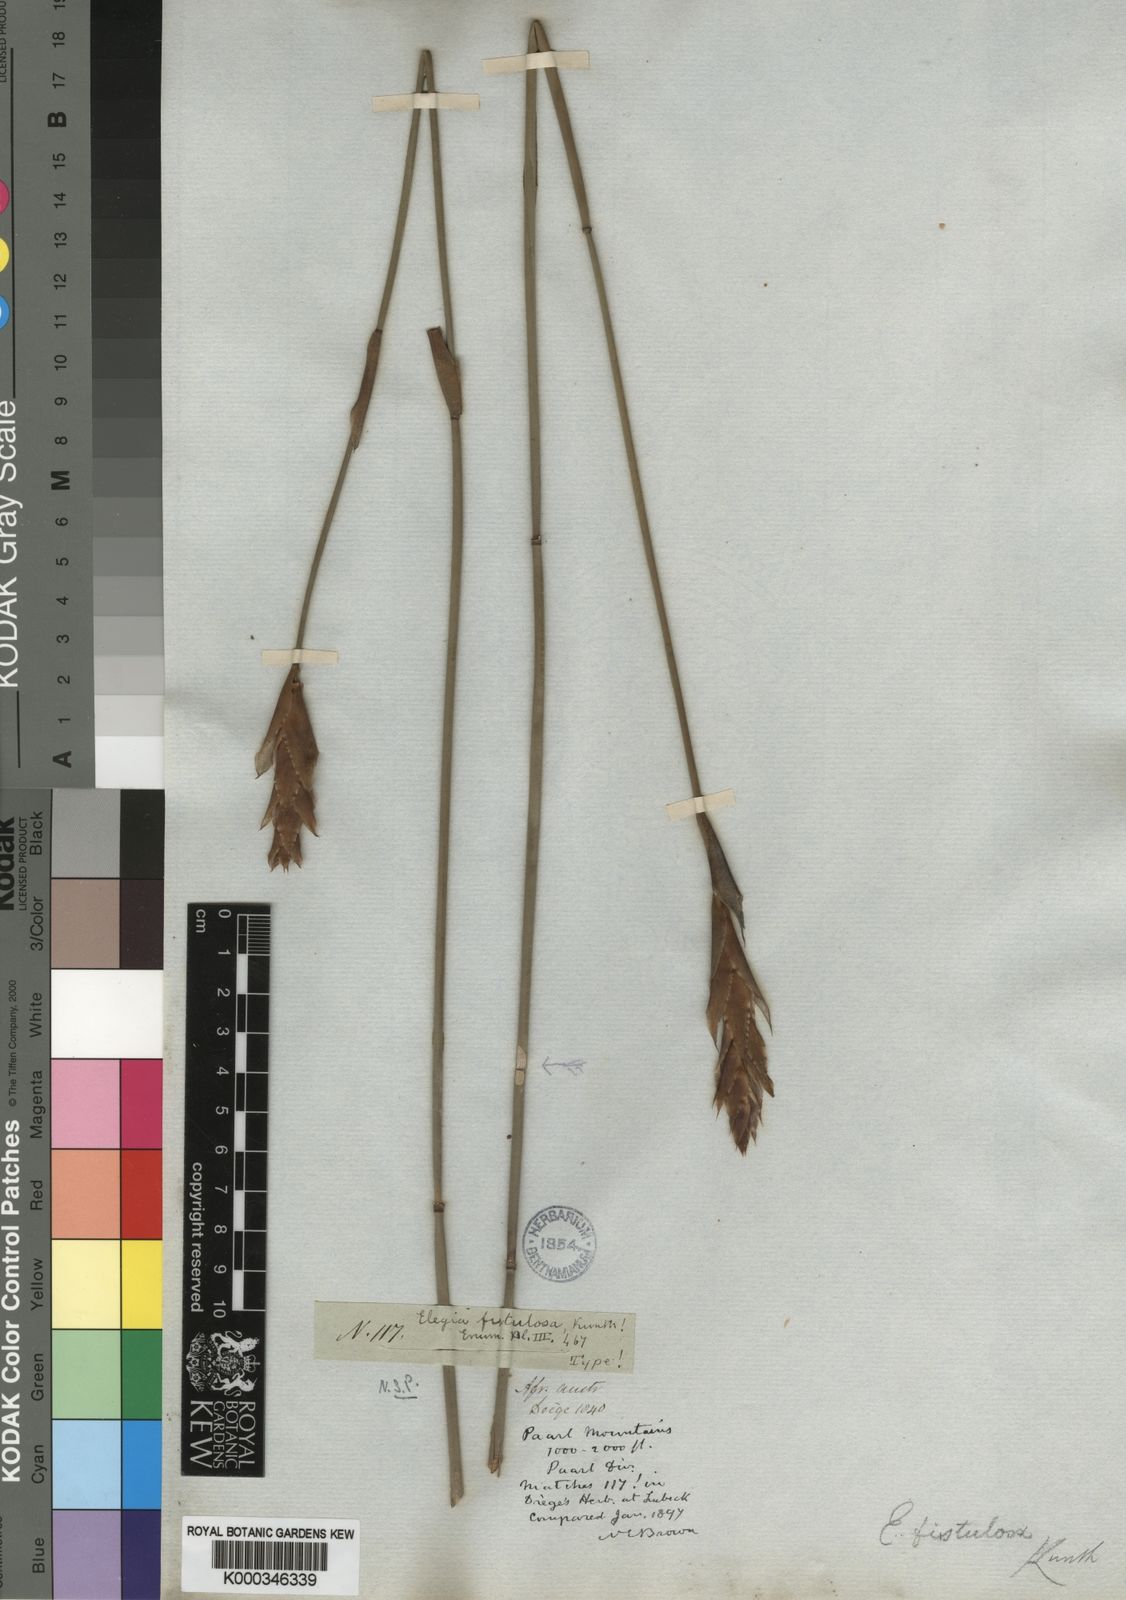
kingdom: Plantae
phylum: Tracheophyta
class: Liliopsida
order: Poales
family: Restionaceae
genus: Elegia
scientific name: Elegia fistulosa
